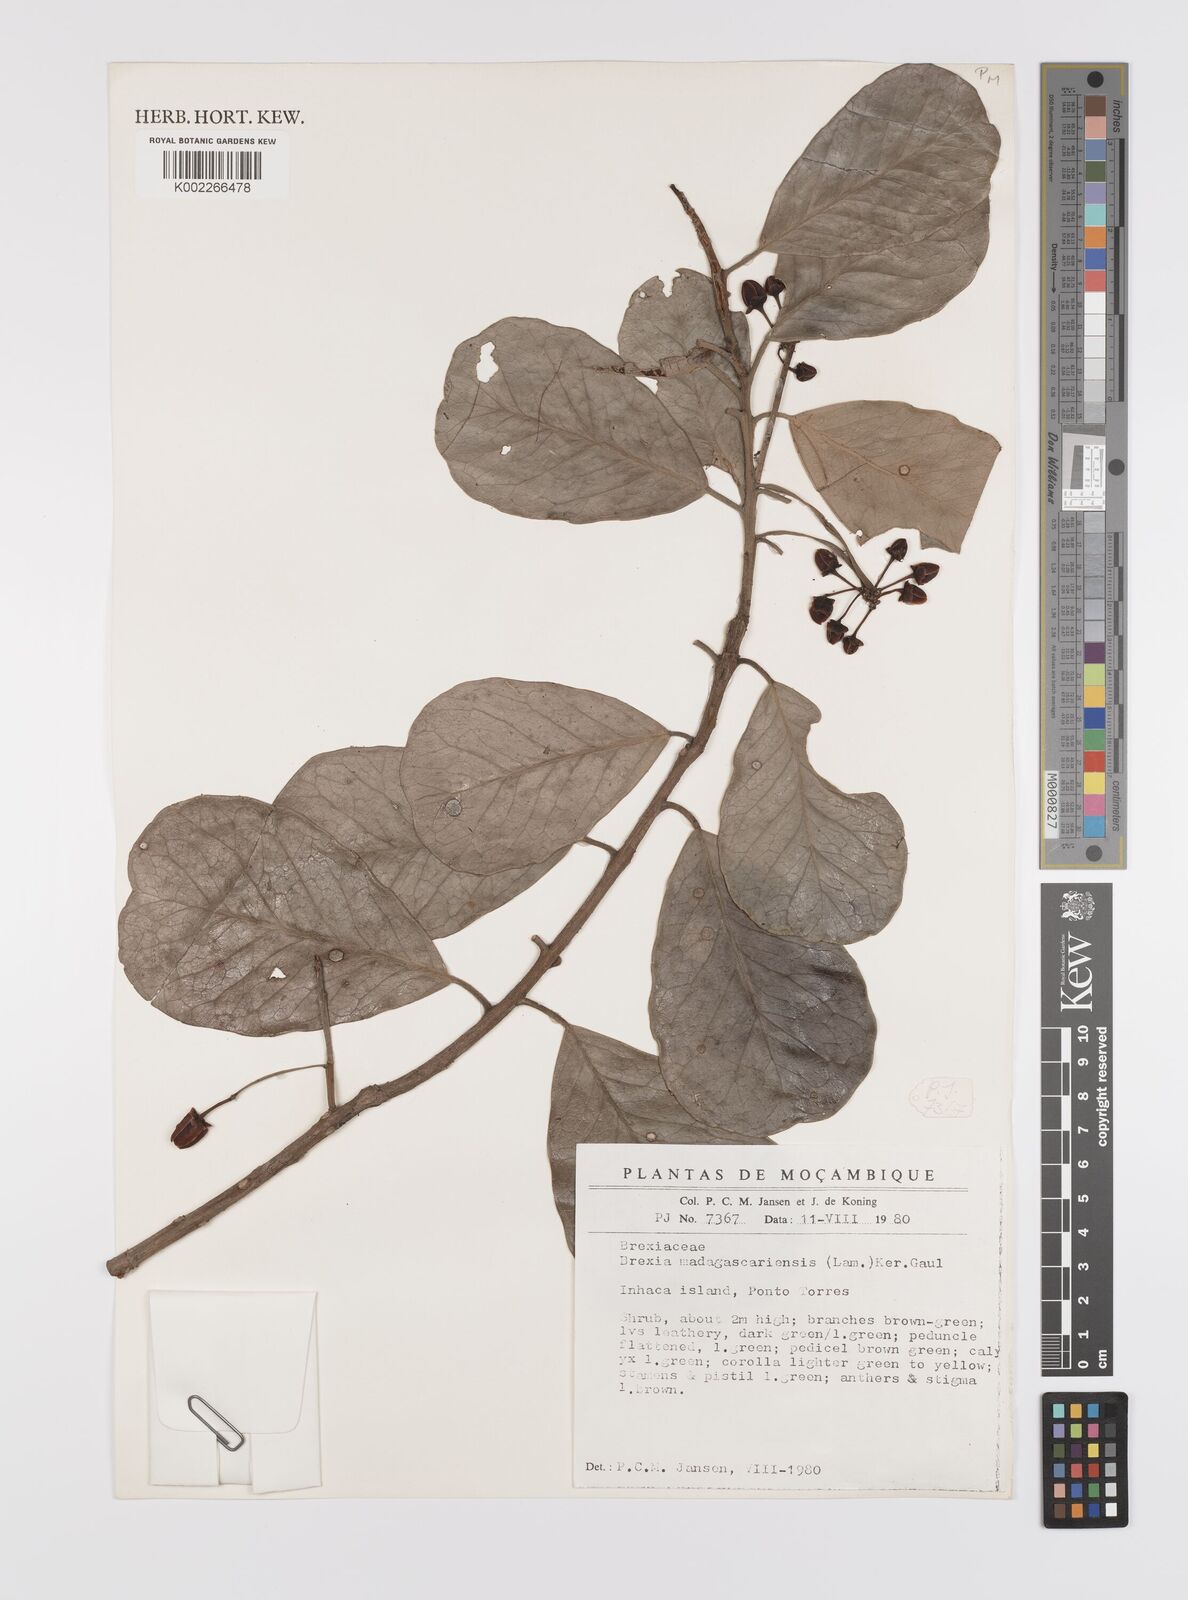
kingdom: Plantae
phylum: Tracheophyta
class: Magnoliopsida
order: Celastrales
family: Celastraceae
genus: Brexia
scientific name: Brexia madagascariensis
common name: Brexia
